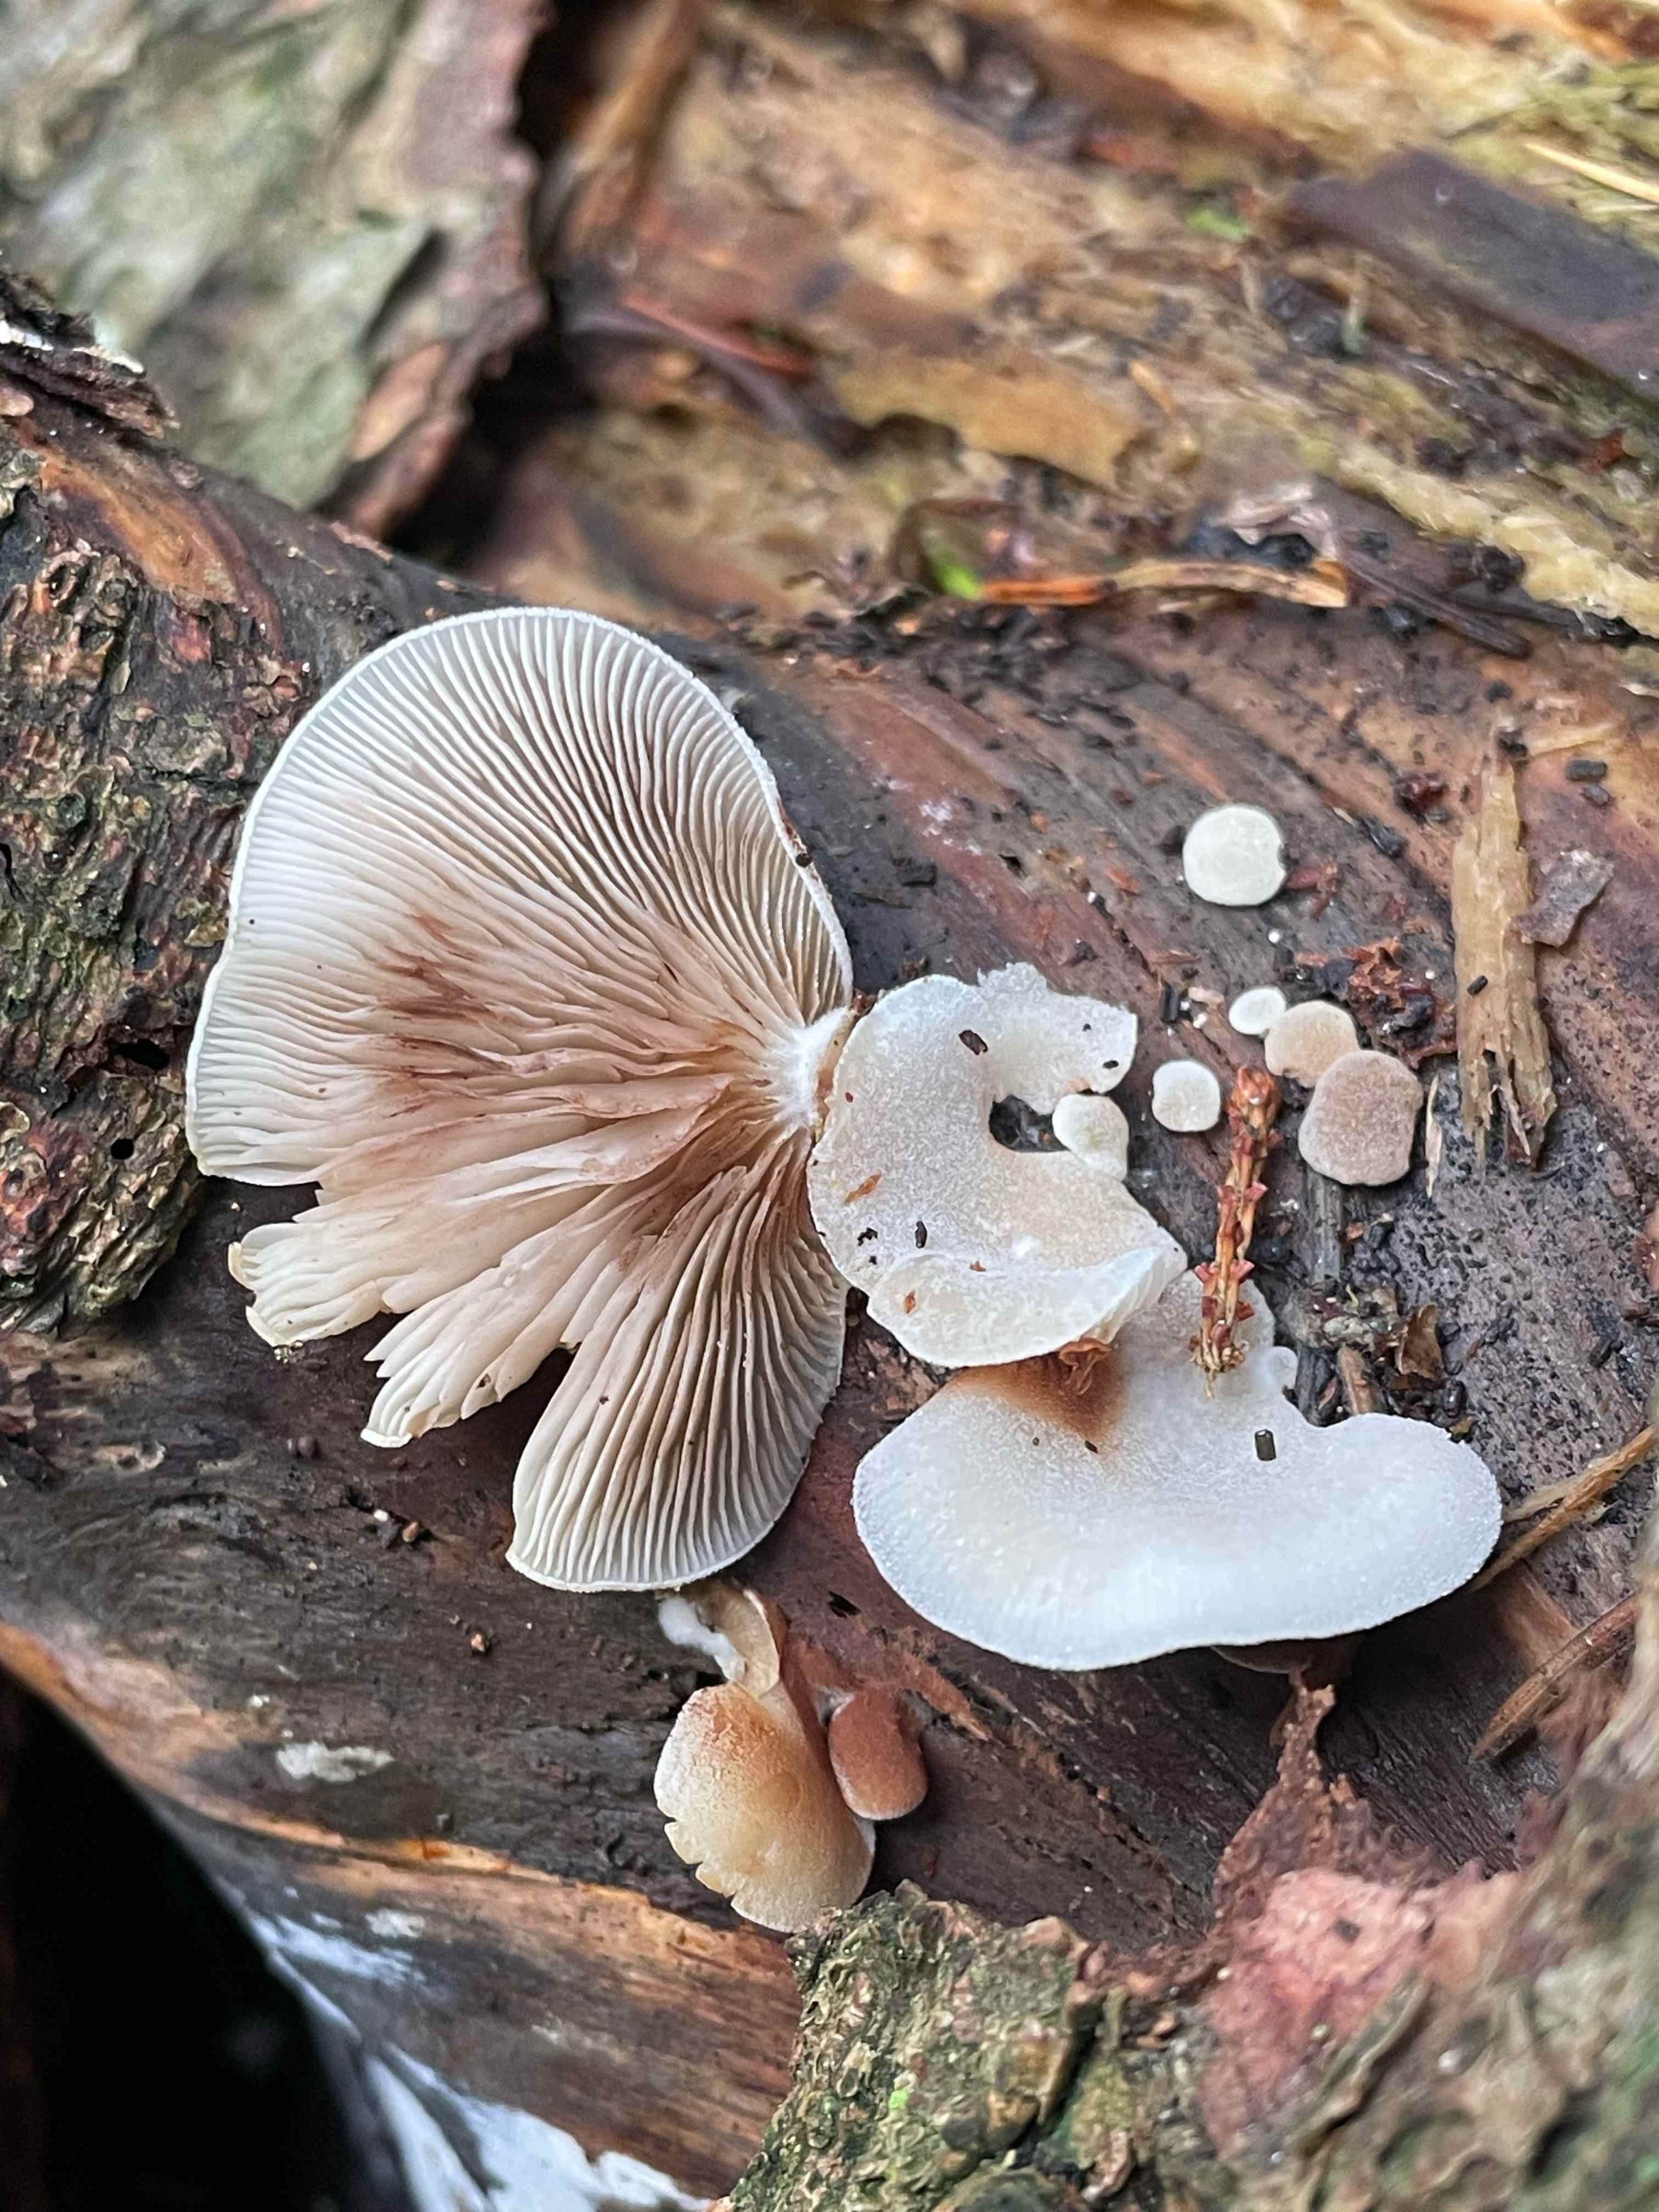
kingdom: Fungi
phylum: Basidiomycota
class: Agaricomycetes
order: Agaricales
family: Crepidotaceae
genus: Crepidotus
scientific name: Crepidotus mollis
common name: blød muslingesvamp
